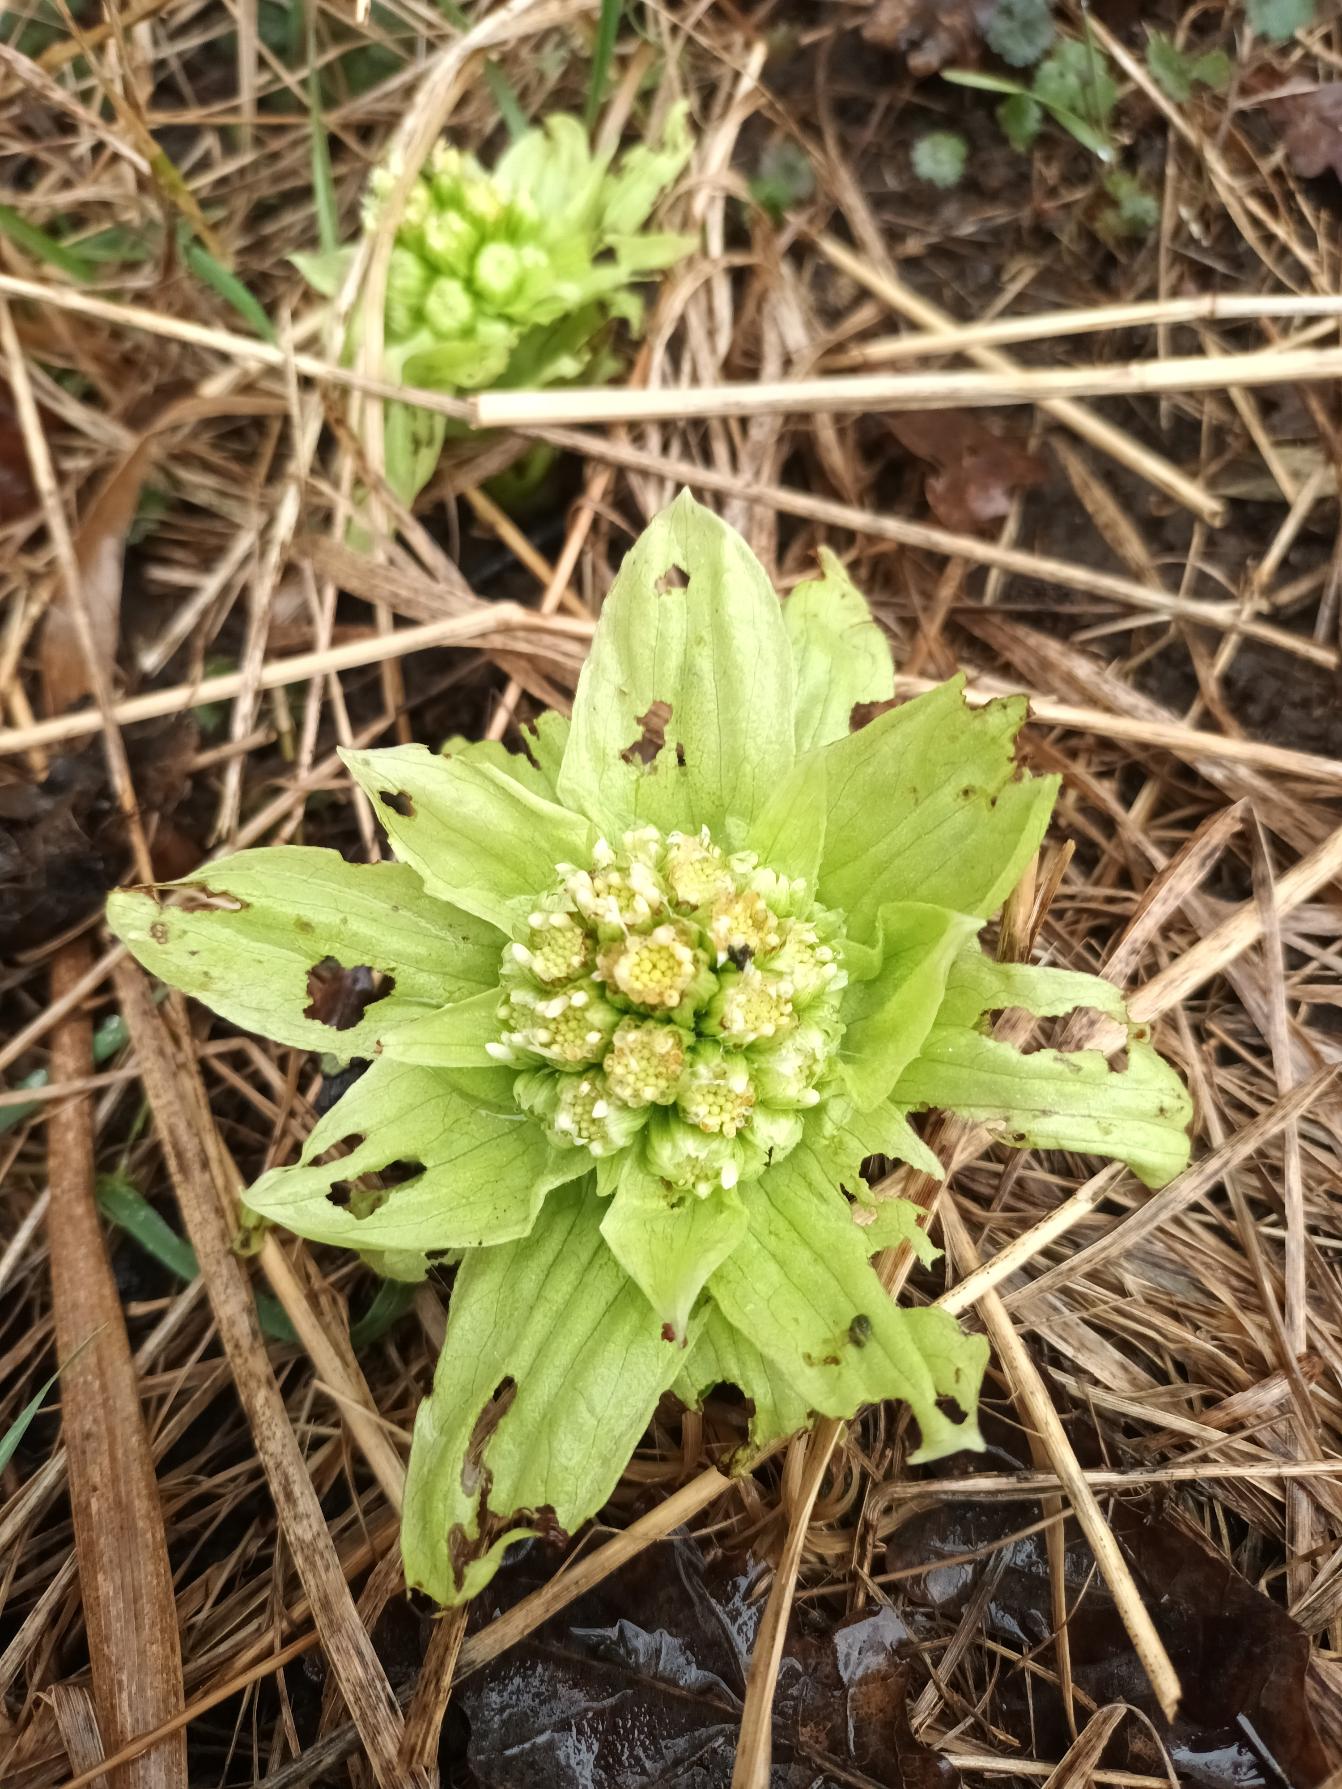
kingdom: Plantae
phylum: Tracheophyta
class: Magnoliopsida
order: Asterales
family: Asteraceae
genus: Petasites
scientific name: Petasites japonicus
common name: Japansk hestehov
